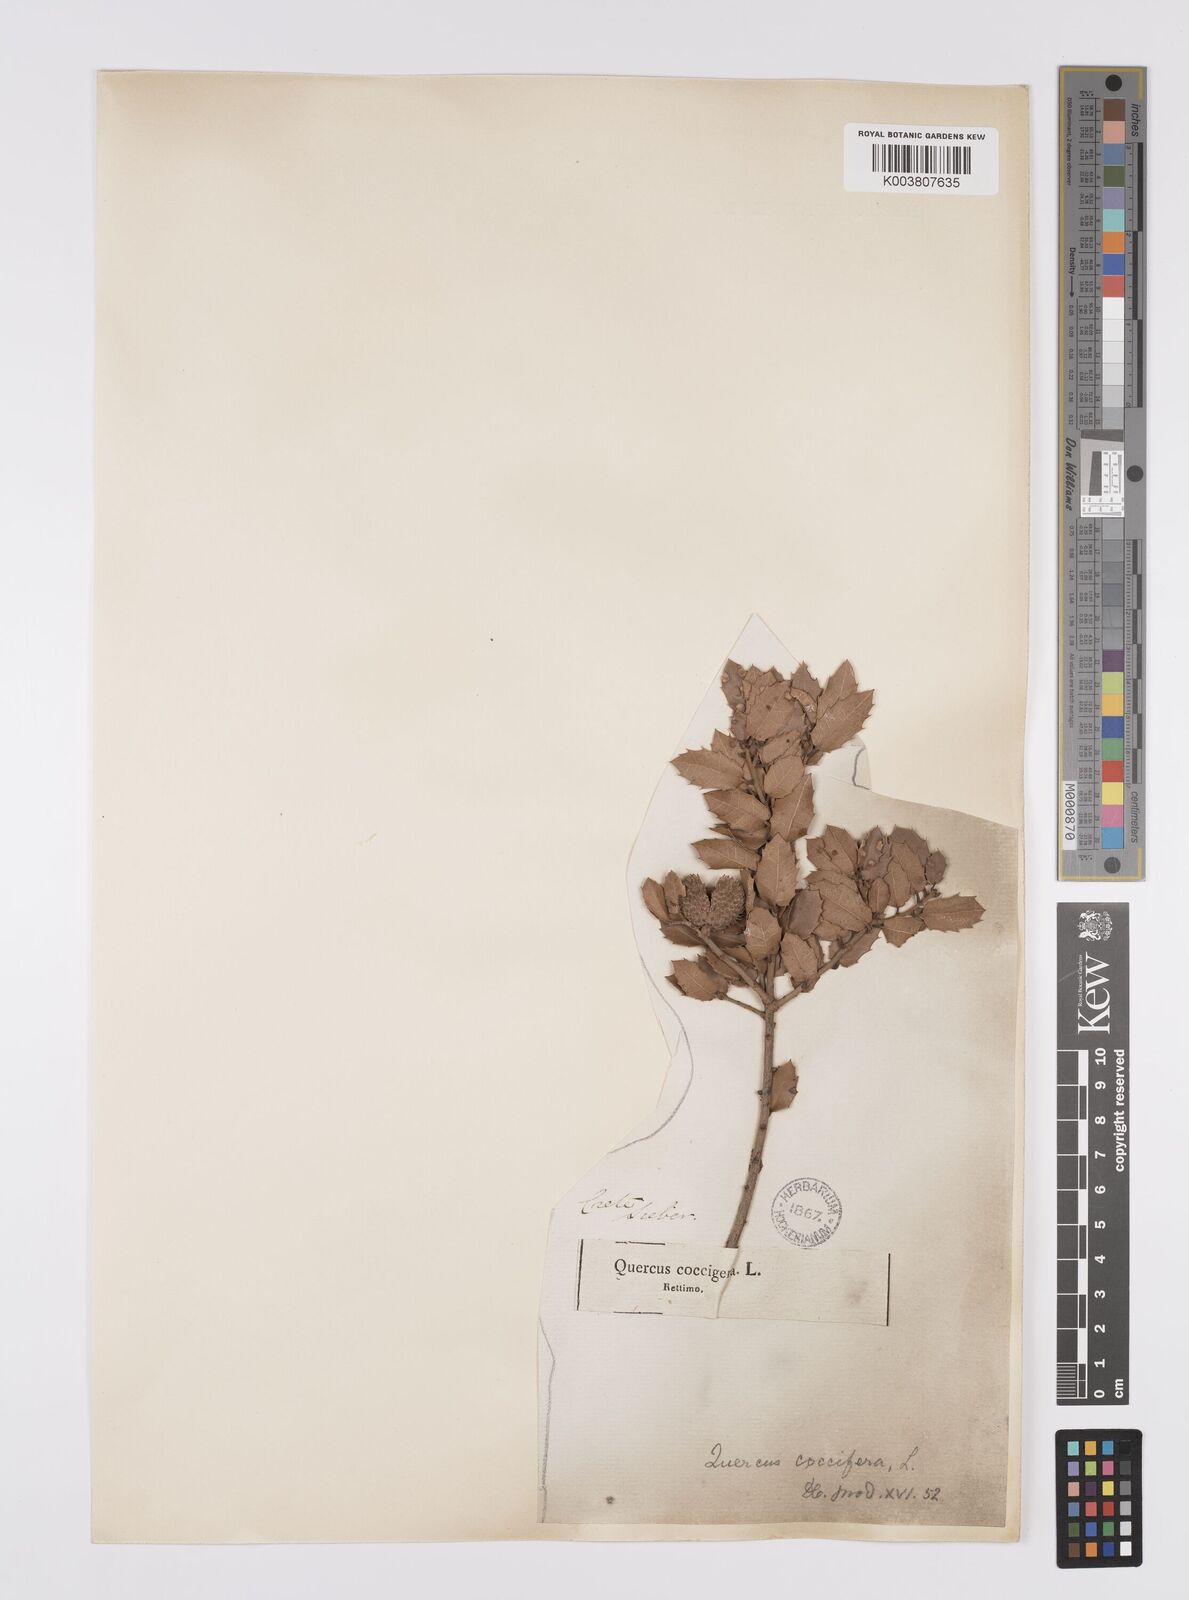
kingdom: Plantae
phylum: Tracheophyta
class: Magnoliopsida
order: Fagales
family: Fagaceae
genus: Quercus
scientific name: Quercus coccifera
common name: Kermes oak
